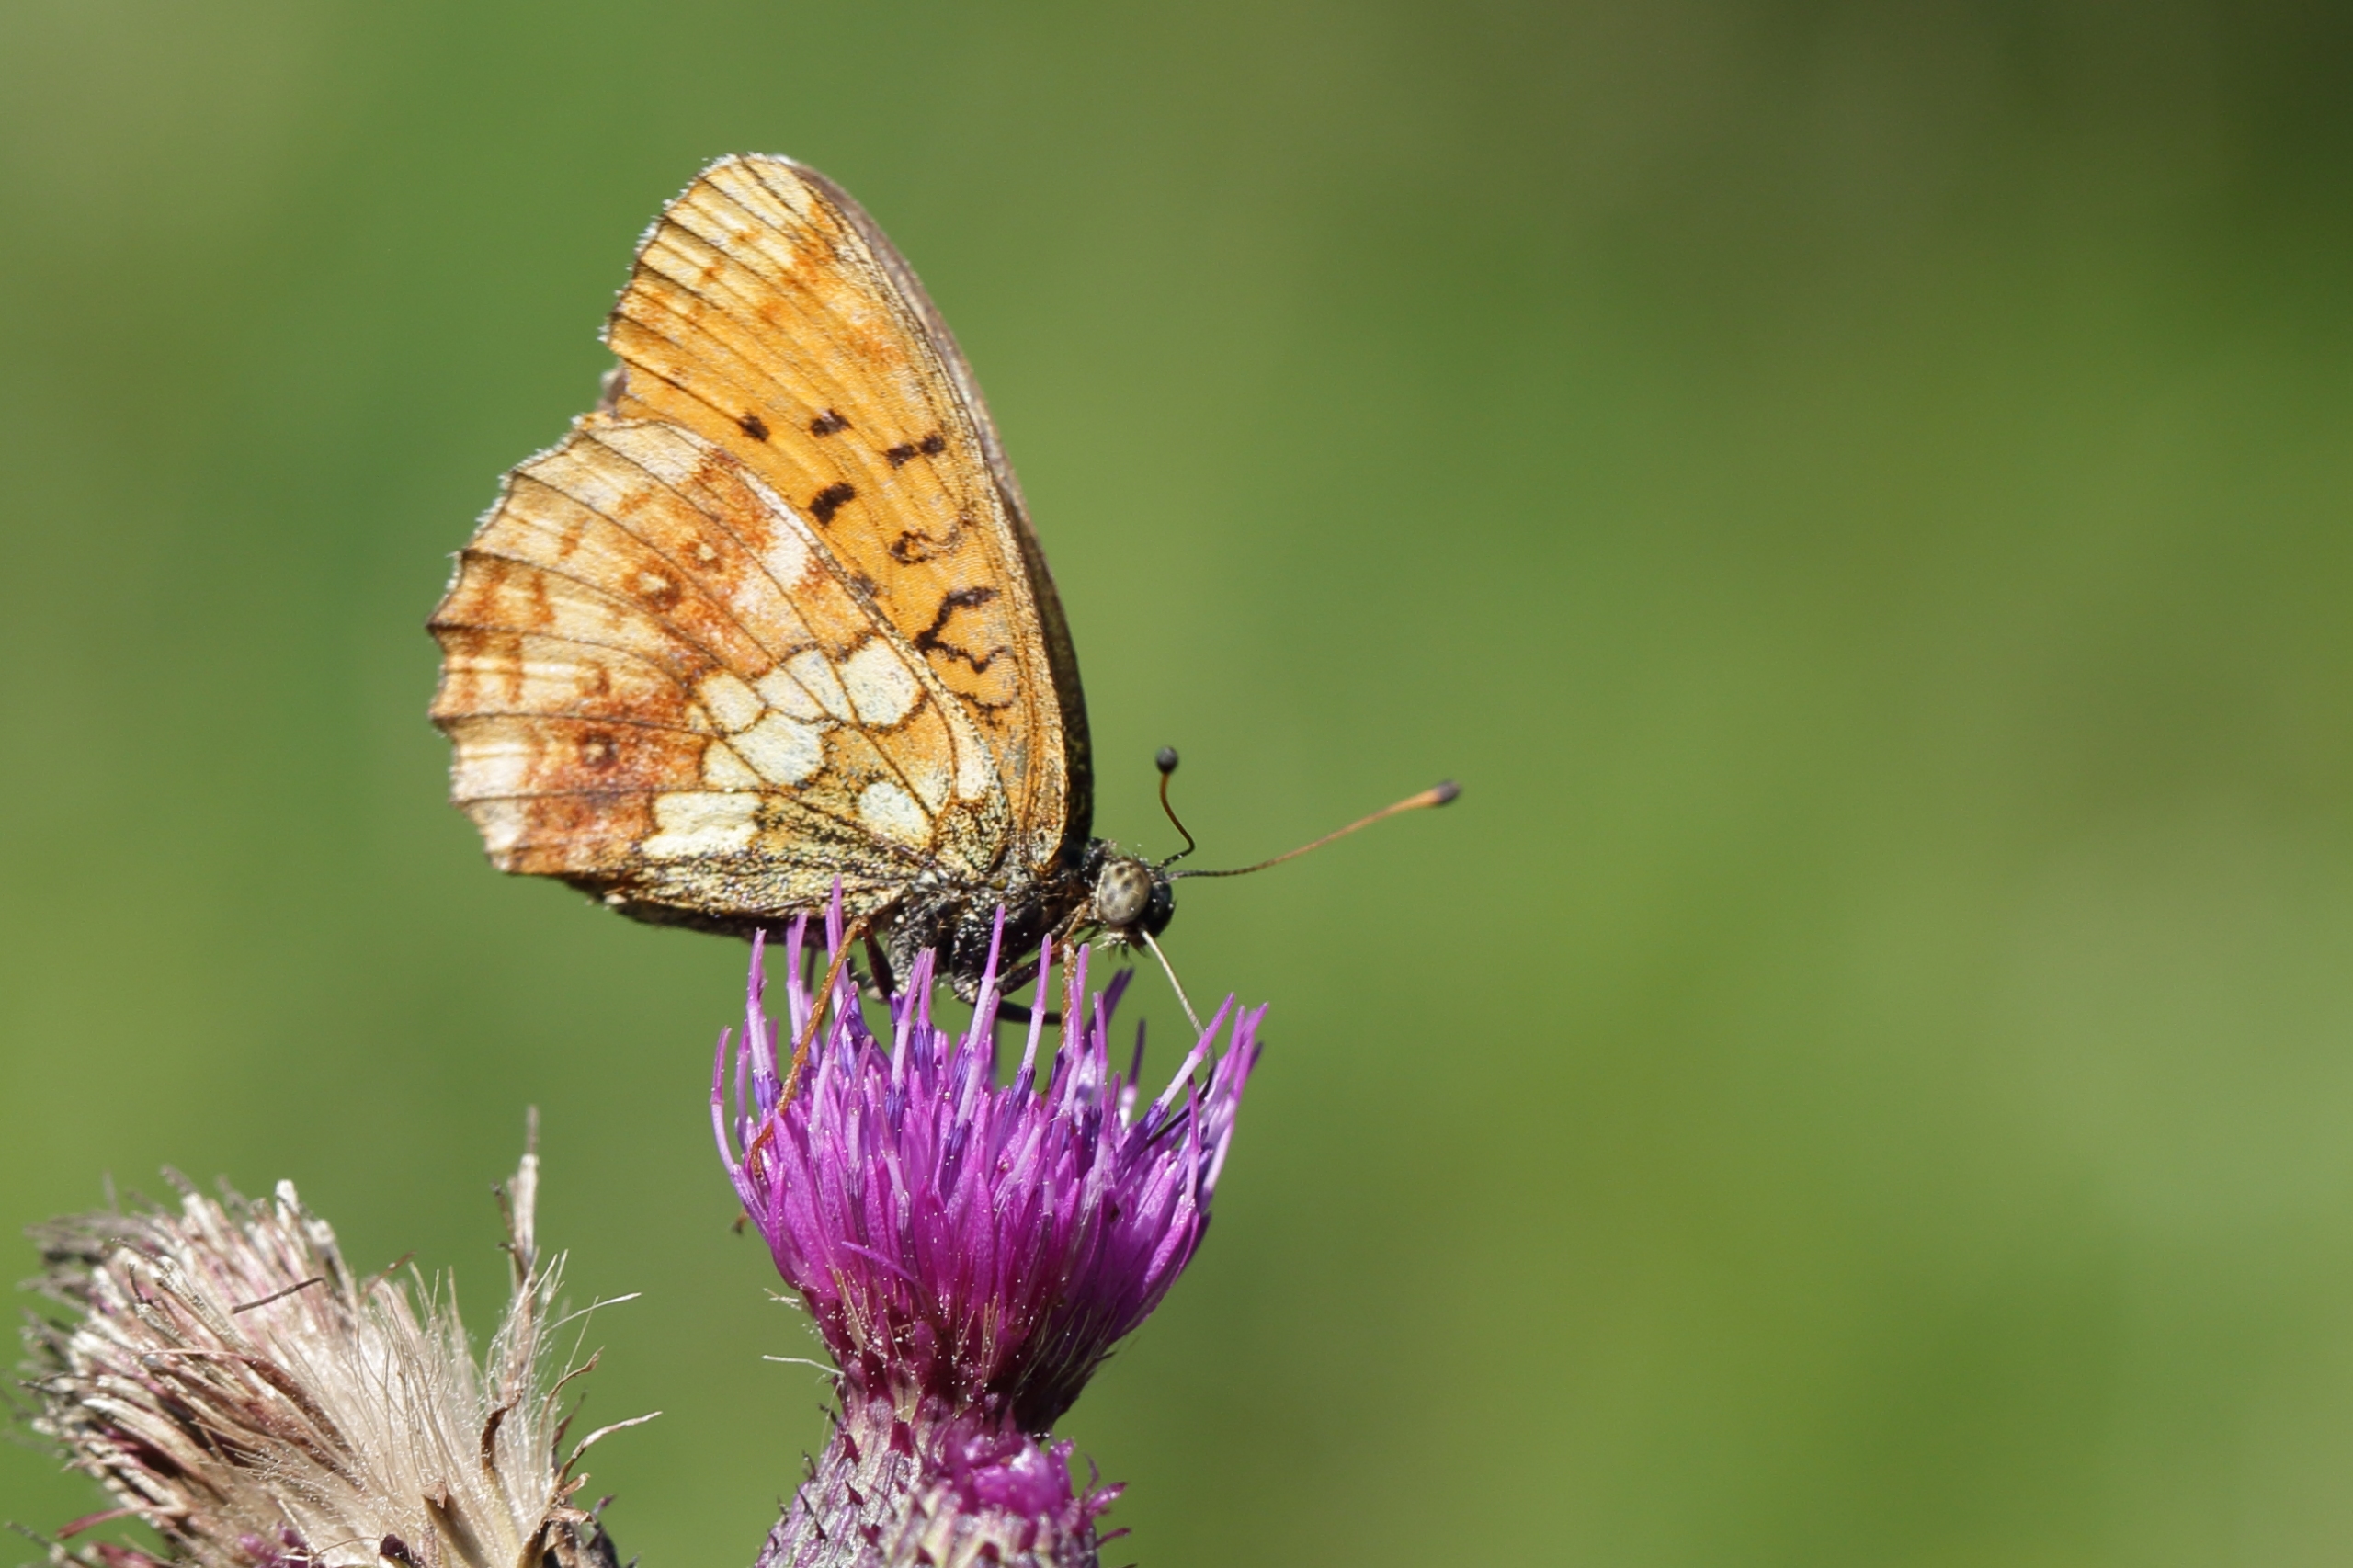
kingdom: Animalia
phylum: Arthropoda
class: Insecta
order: Lepidoptera
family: Nymphalidae
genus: Brenthis
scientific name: Brenthis ino
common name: Engperlemorsommerfugl
